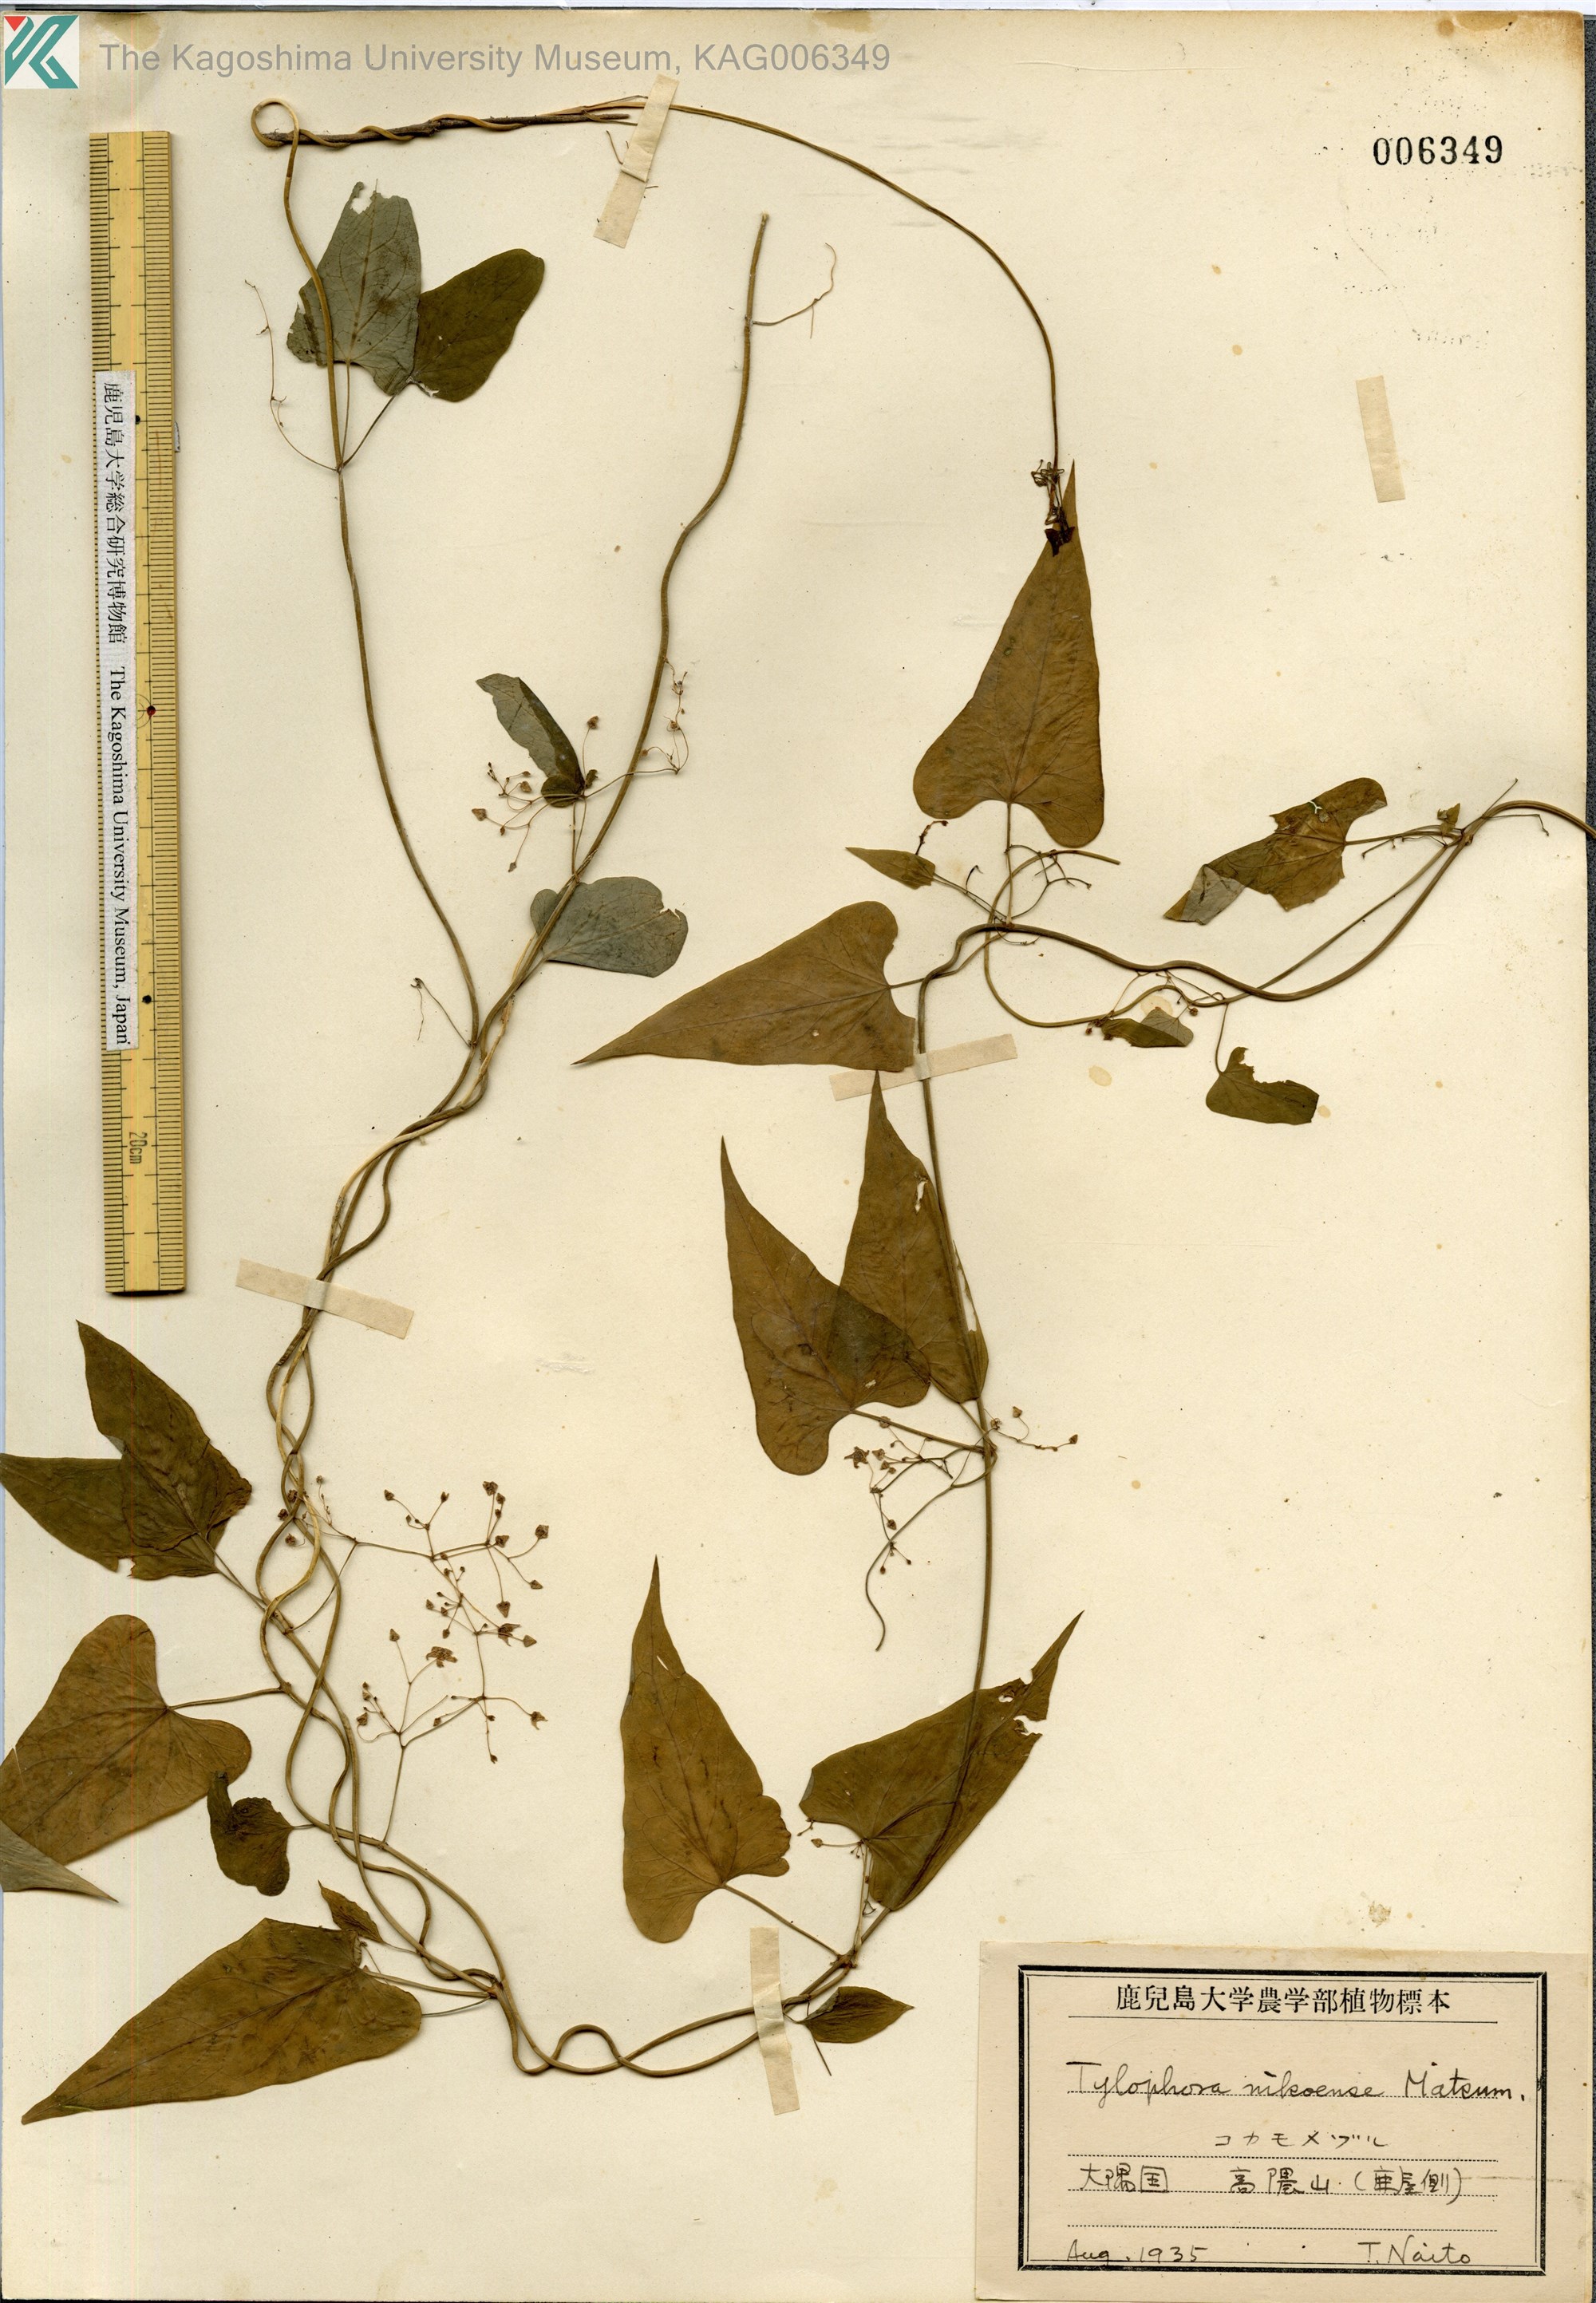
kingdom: Plantae
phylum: Tracheophyta
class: Magnoliopsida
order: Gentianales
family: Apocynaceae
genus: Vincetoxicum
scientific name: Vincetoxicum nikoense
